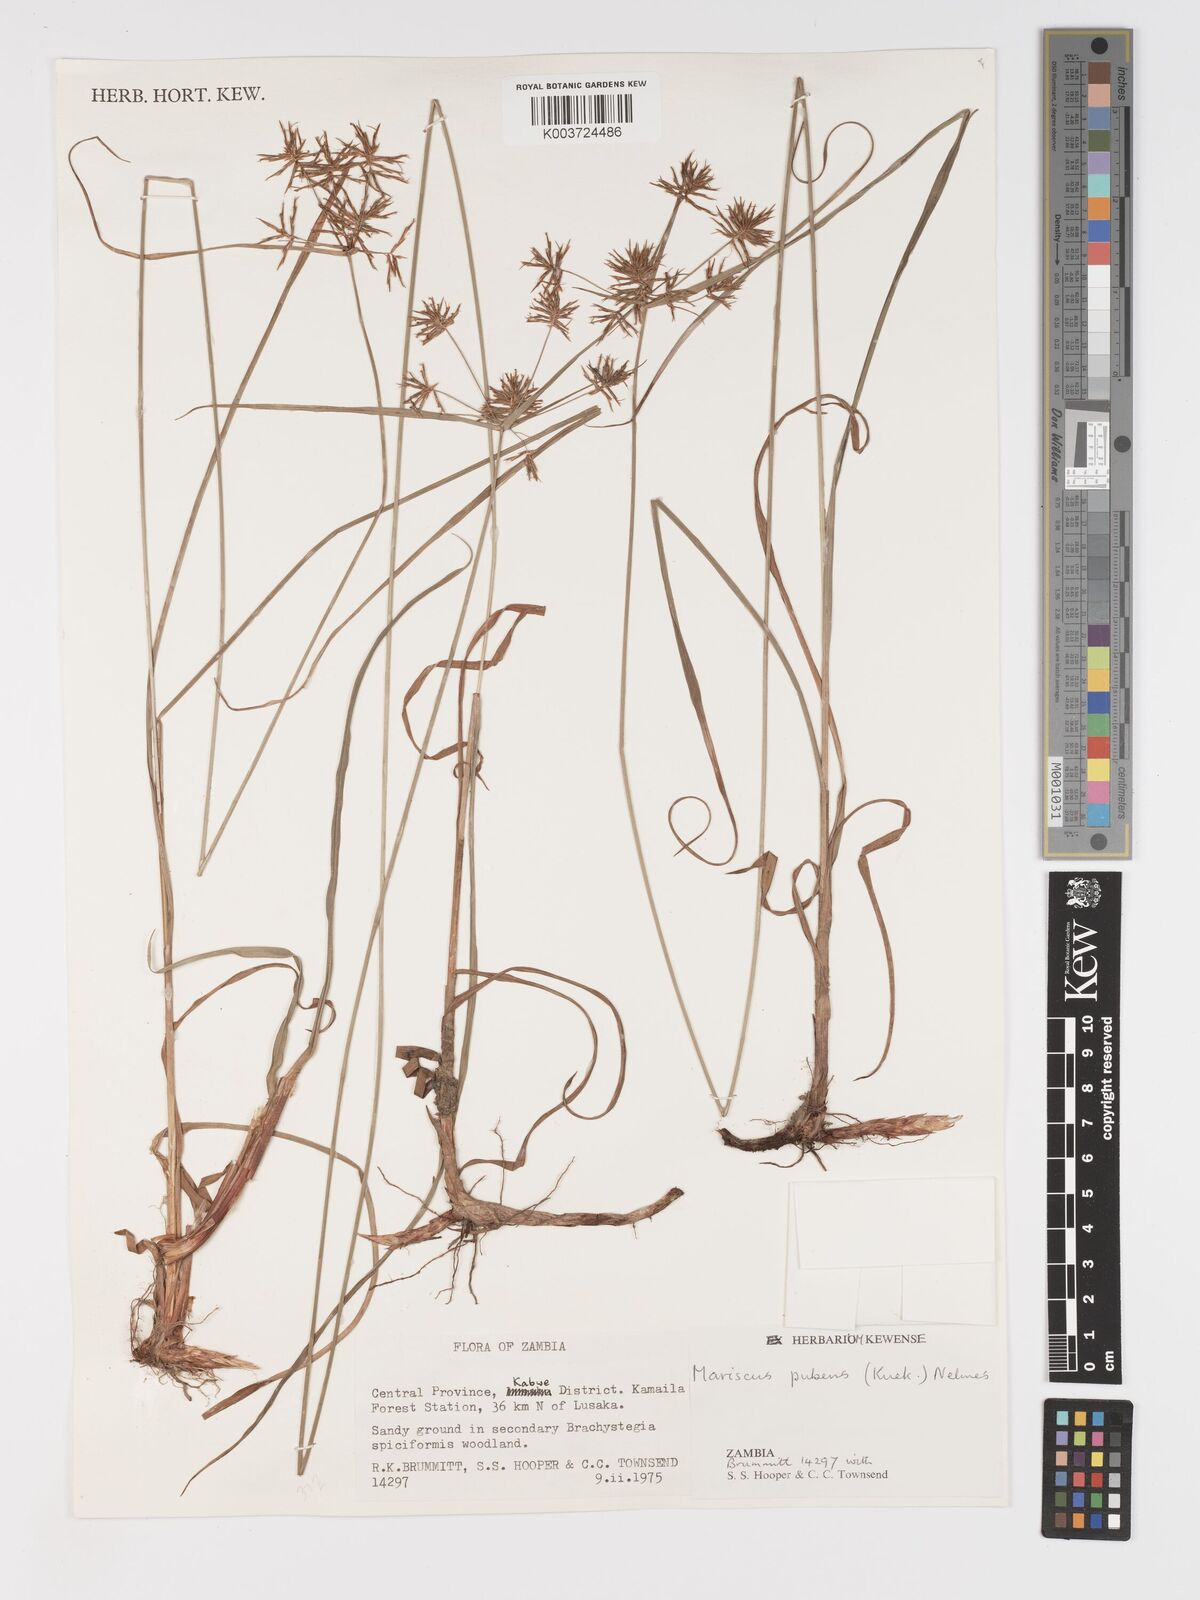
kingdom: Plantae
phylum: Tracheophyta
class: Liliopsida
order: Poales
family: Cyperaceae
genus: Cyperus
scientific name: Cyperus pubens
